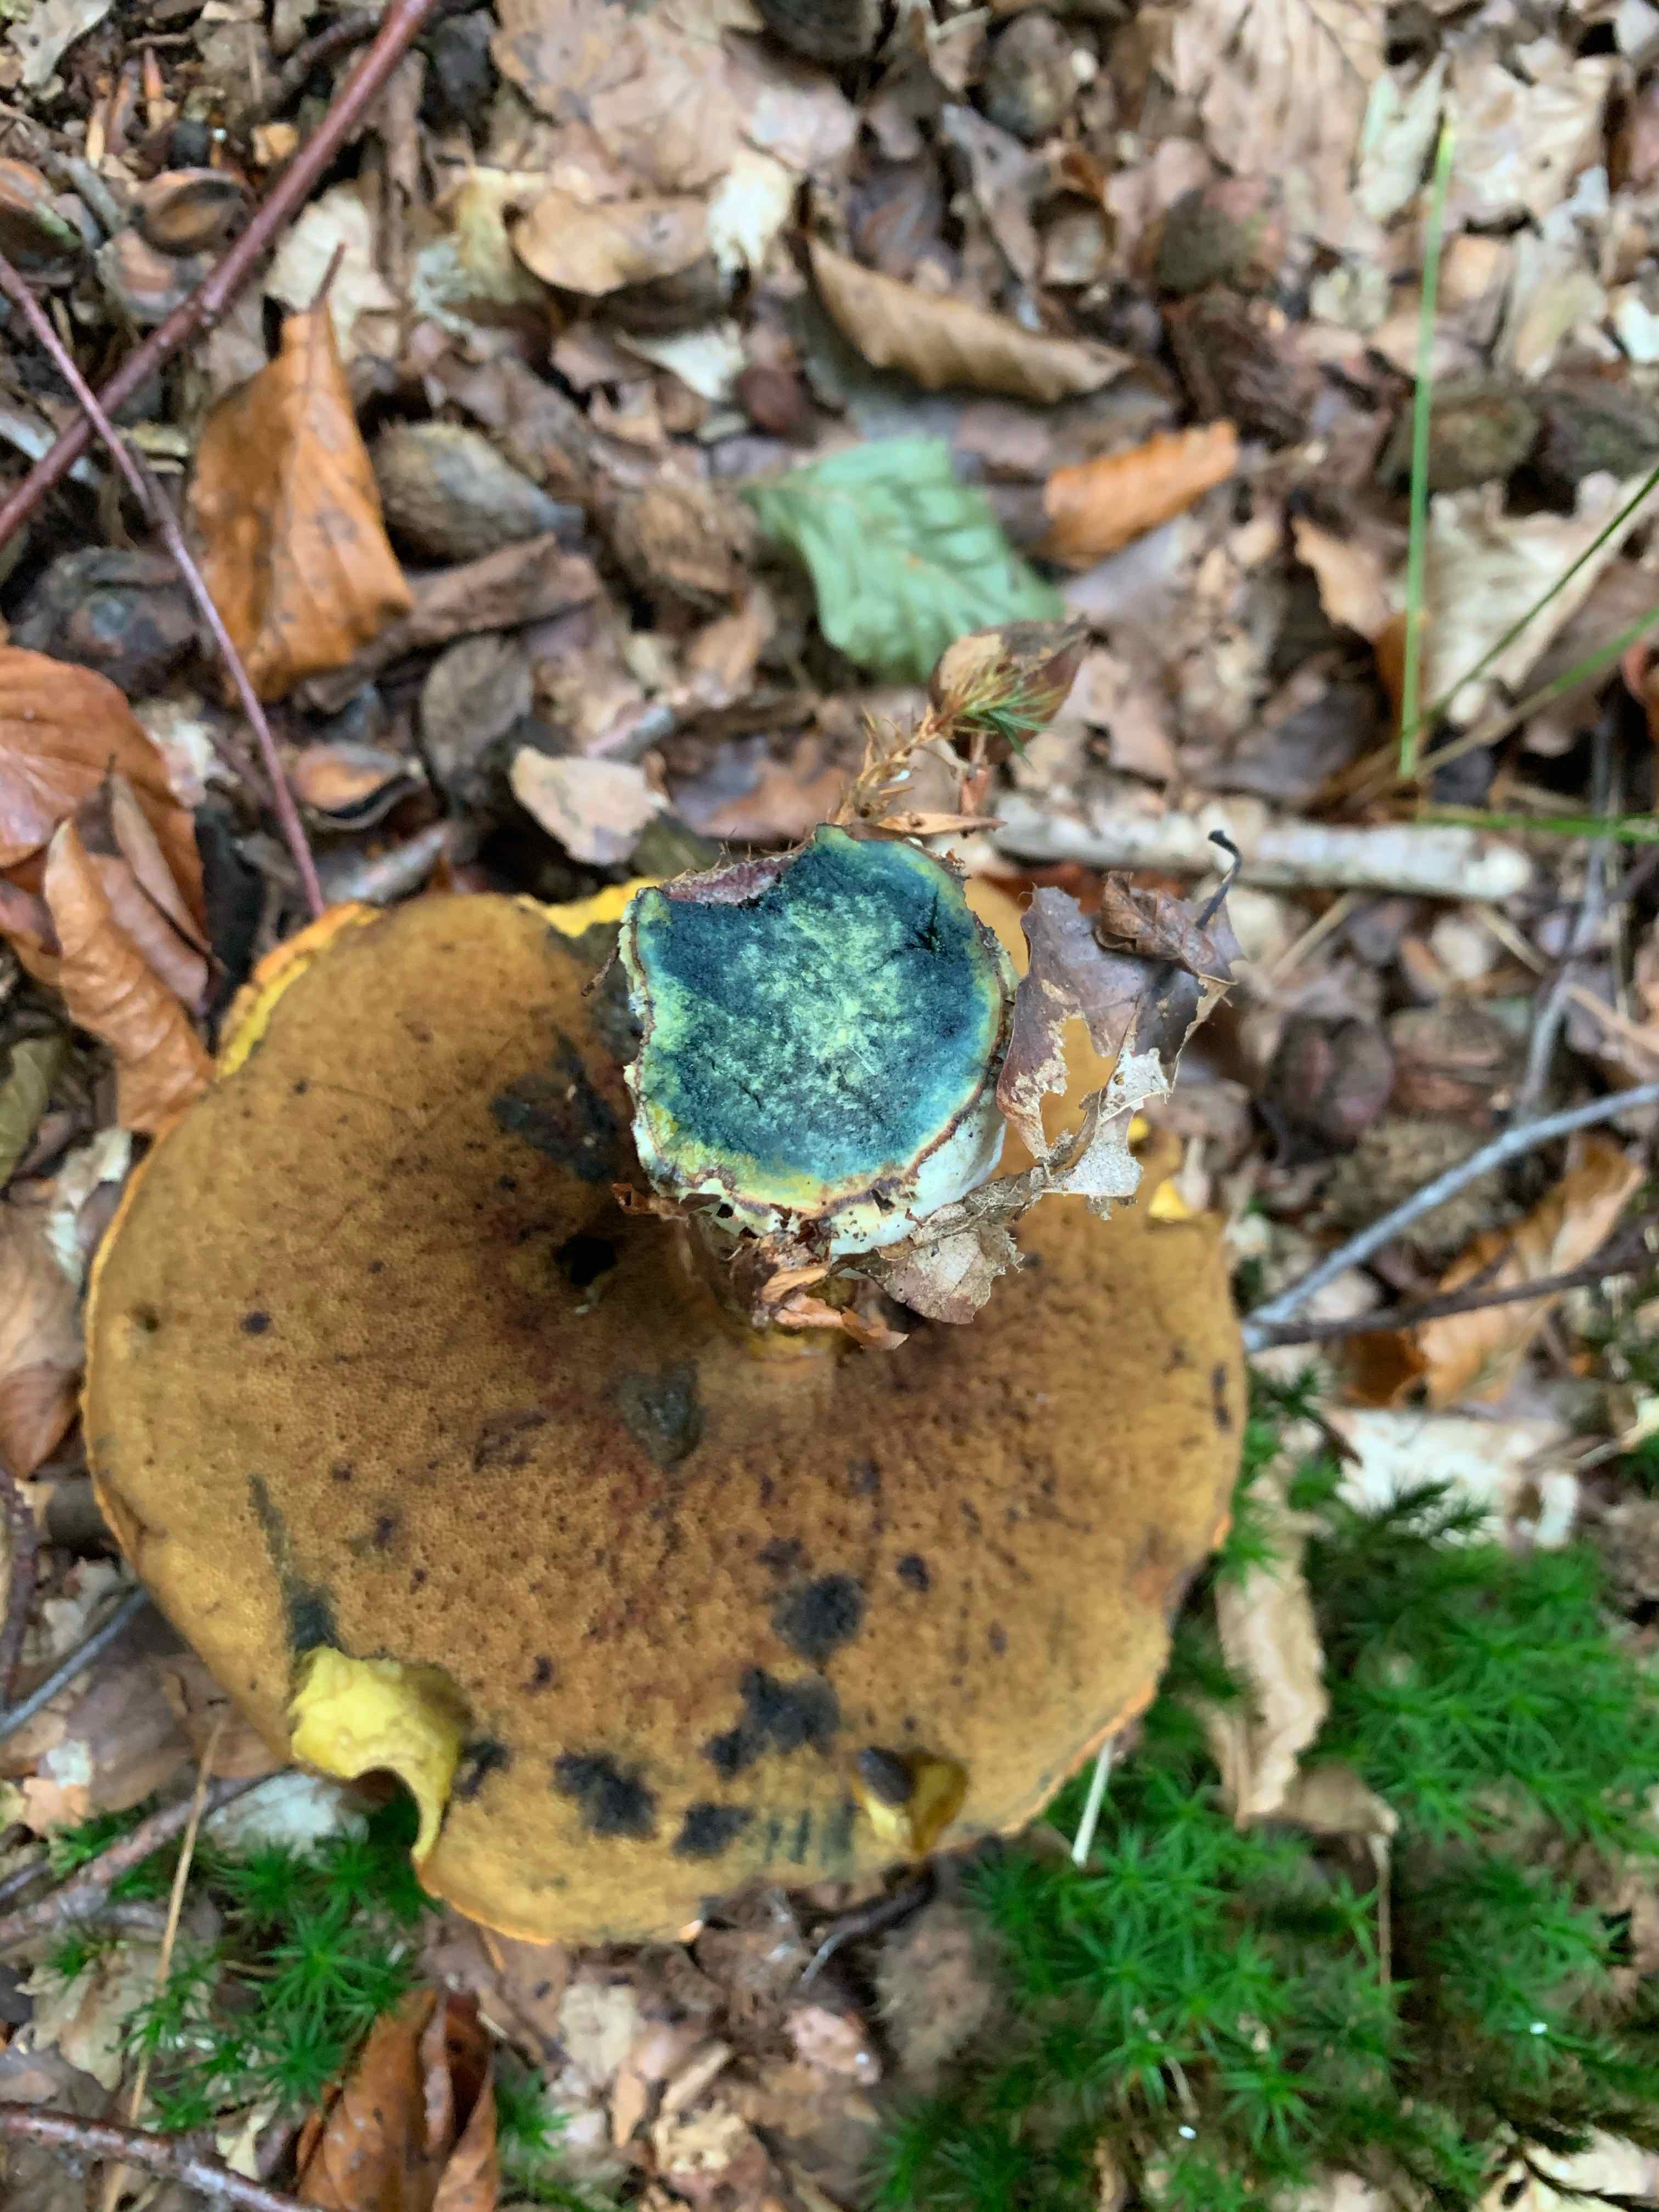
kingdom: Fungi
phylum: Basidiomycota
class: Agaricomycetes
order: Boletales
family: Boletaceae
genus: Neoboletus
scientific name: Neoboletus erythropus
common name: punktstokket indigorørhat
